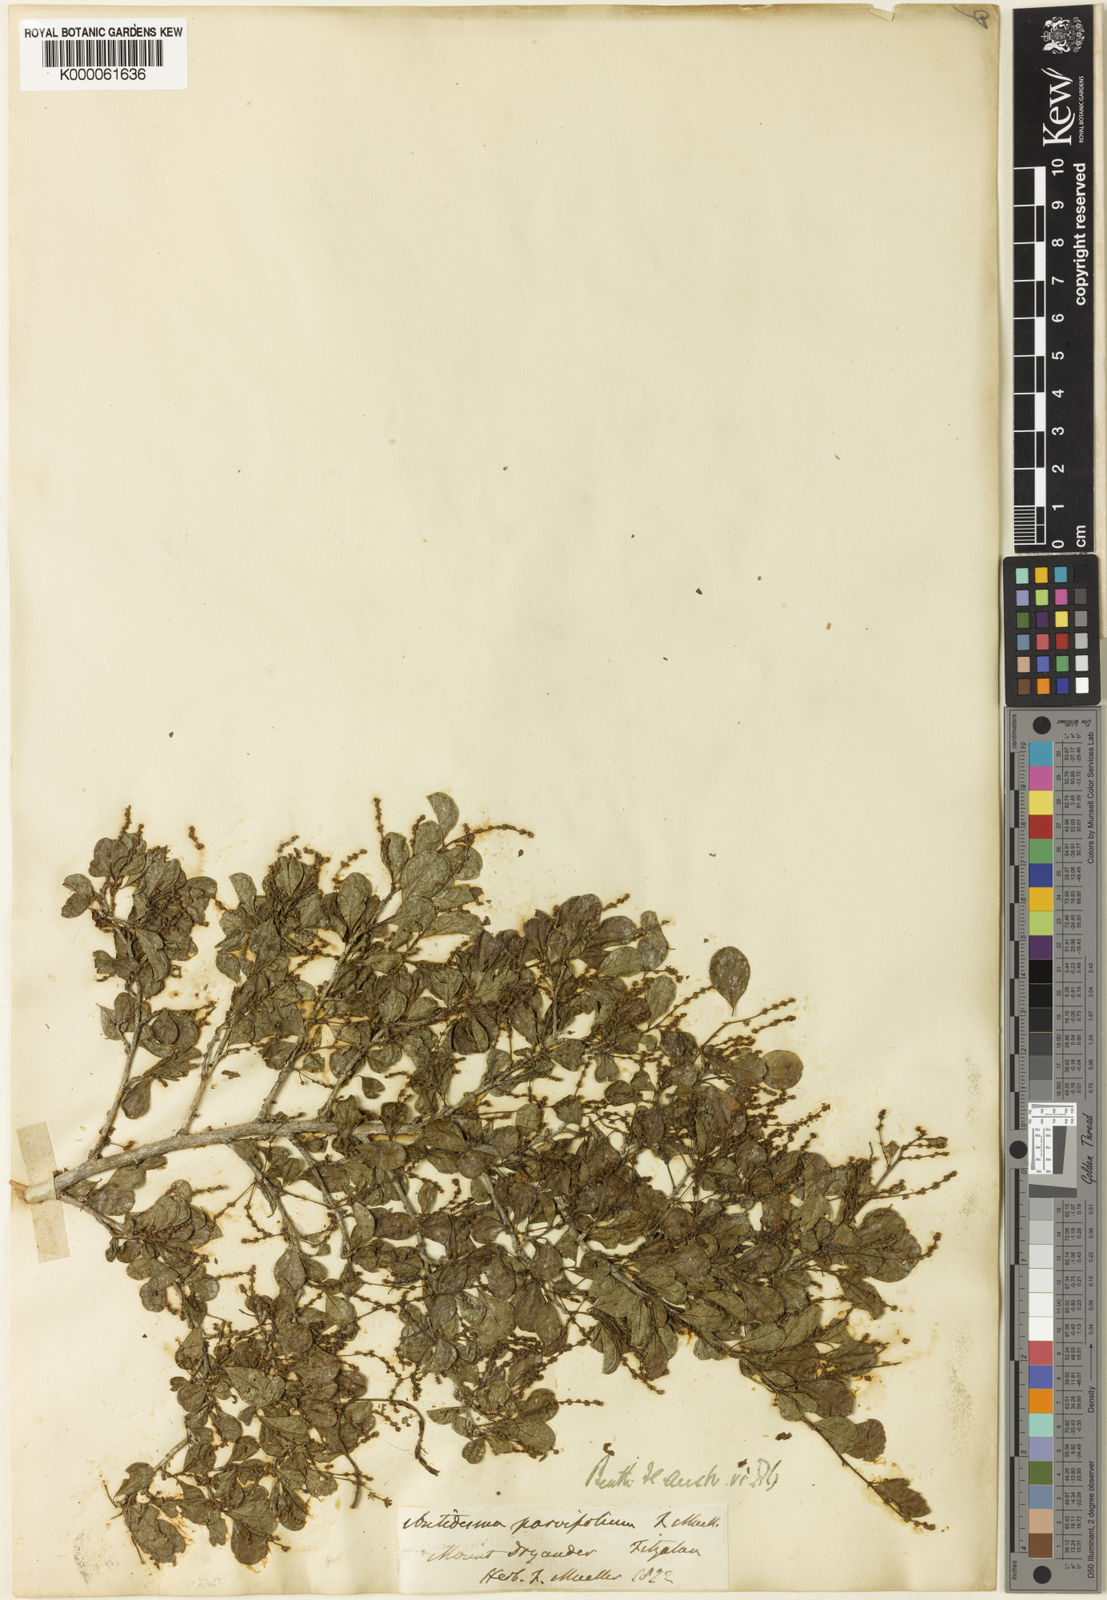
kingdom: Plantae
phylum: Tracheophyta
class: Magnoliopsida
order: Malpighiales
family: Phyllanthaceae
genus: Antidesma
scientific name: Antidesma parvifolium
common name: Blackcurrant
